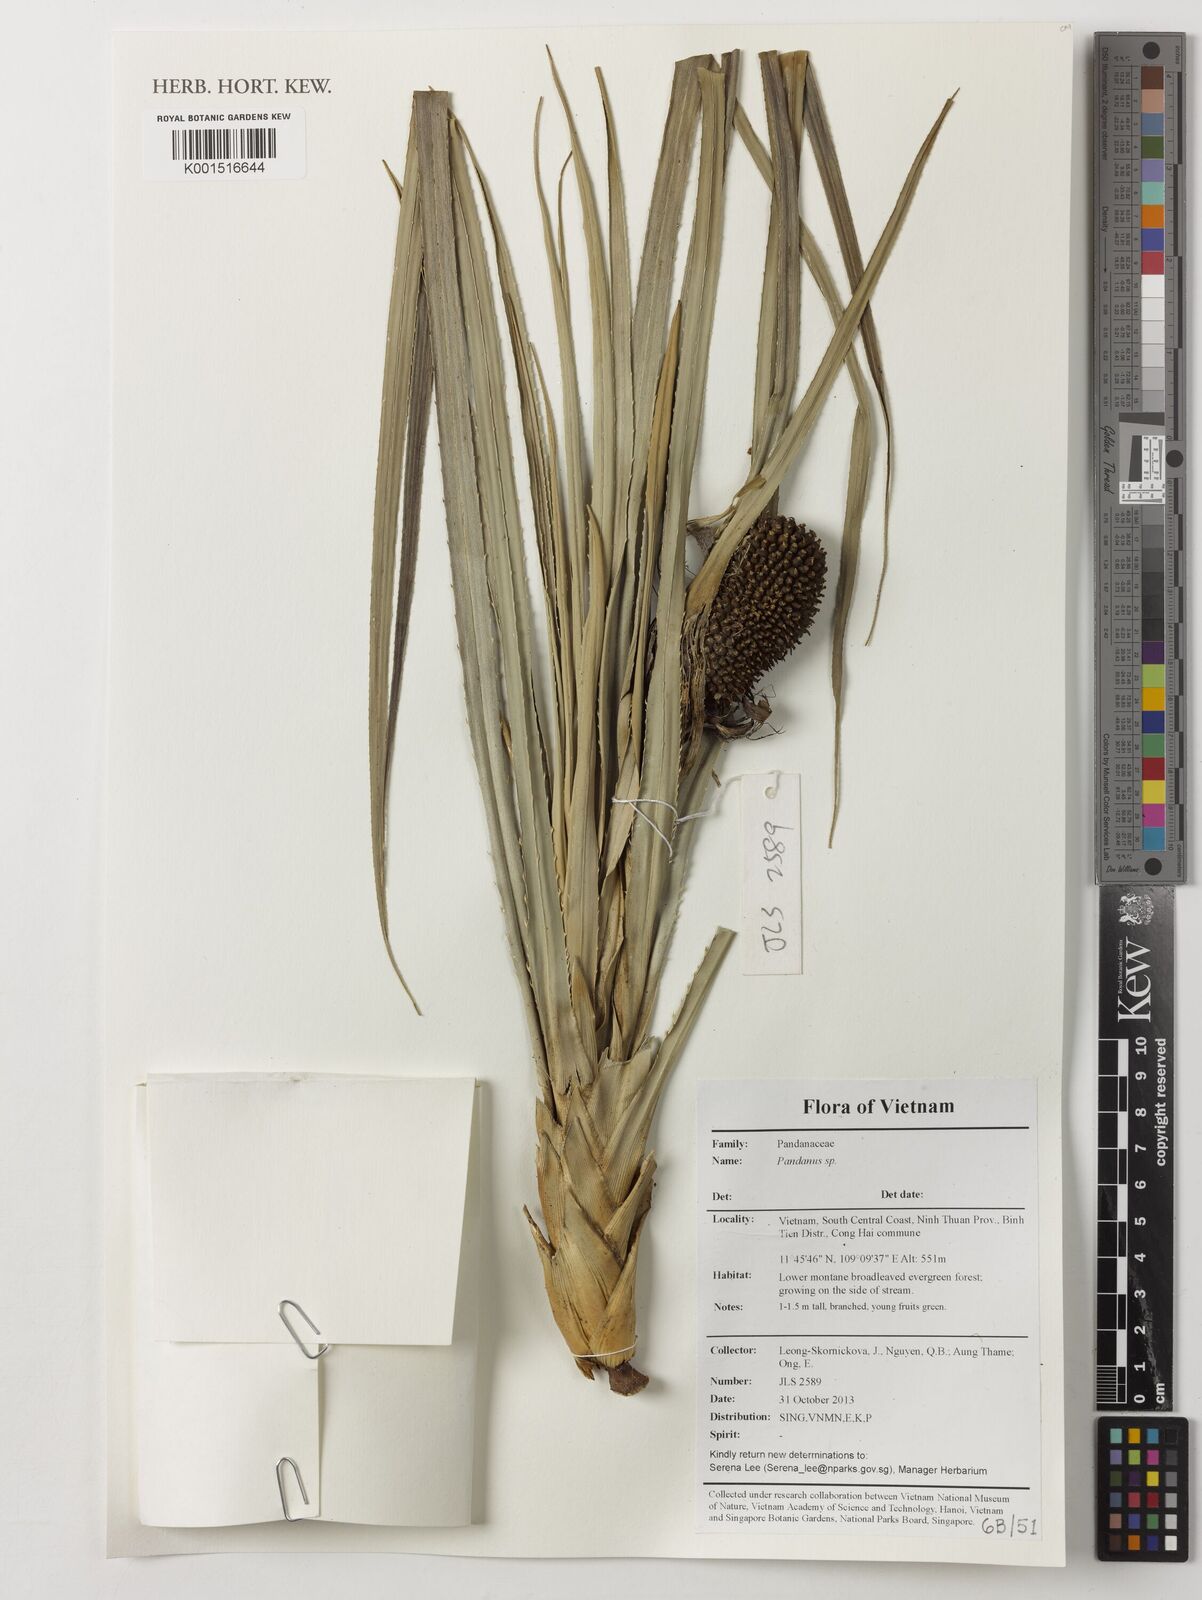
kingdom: Plantae
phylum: Tracheophyta
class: Liliopsida
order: Pandanales
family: Pandanaceae
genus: Pandanus
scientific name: Pandanus
